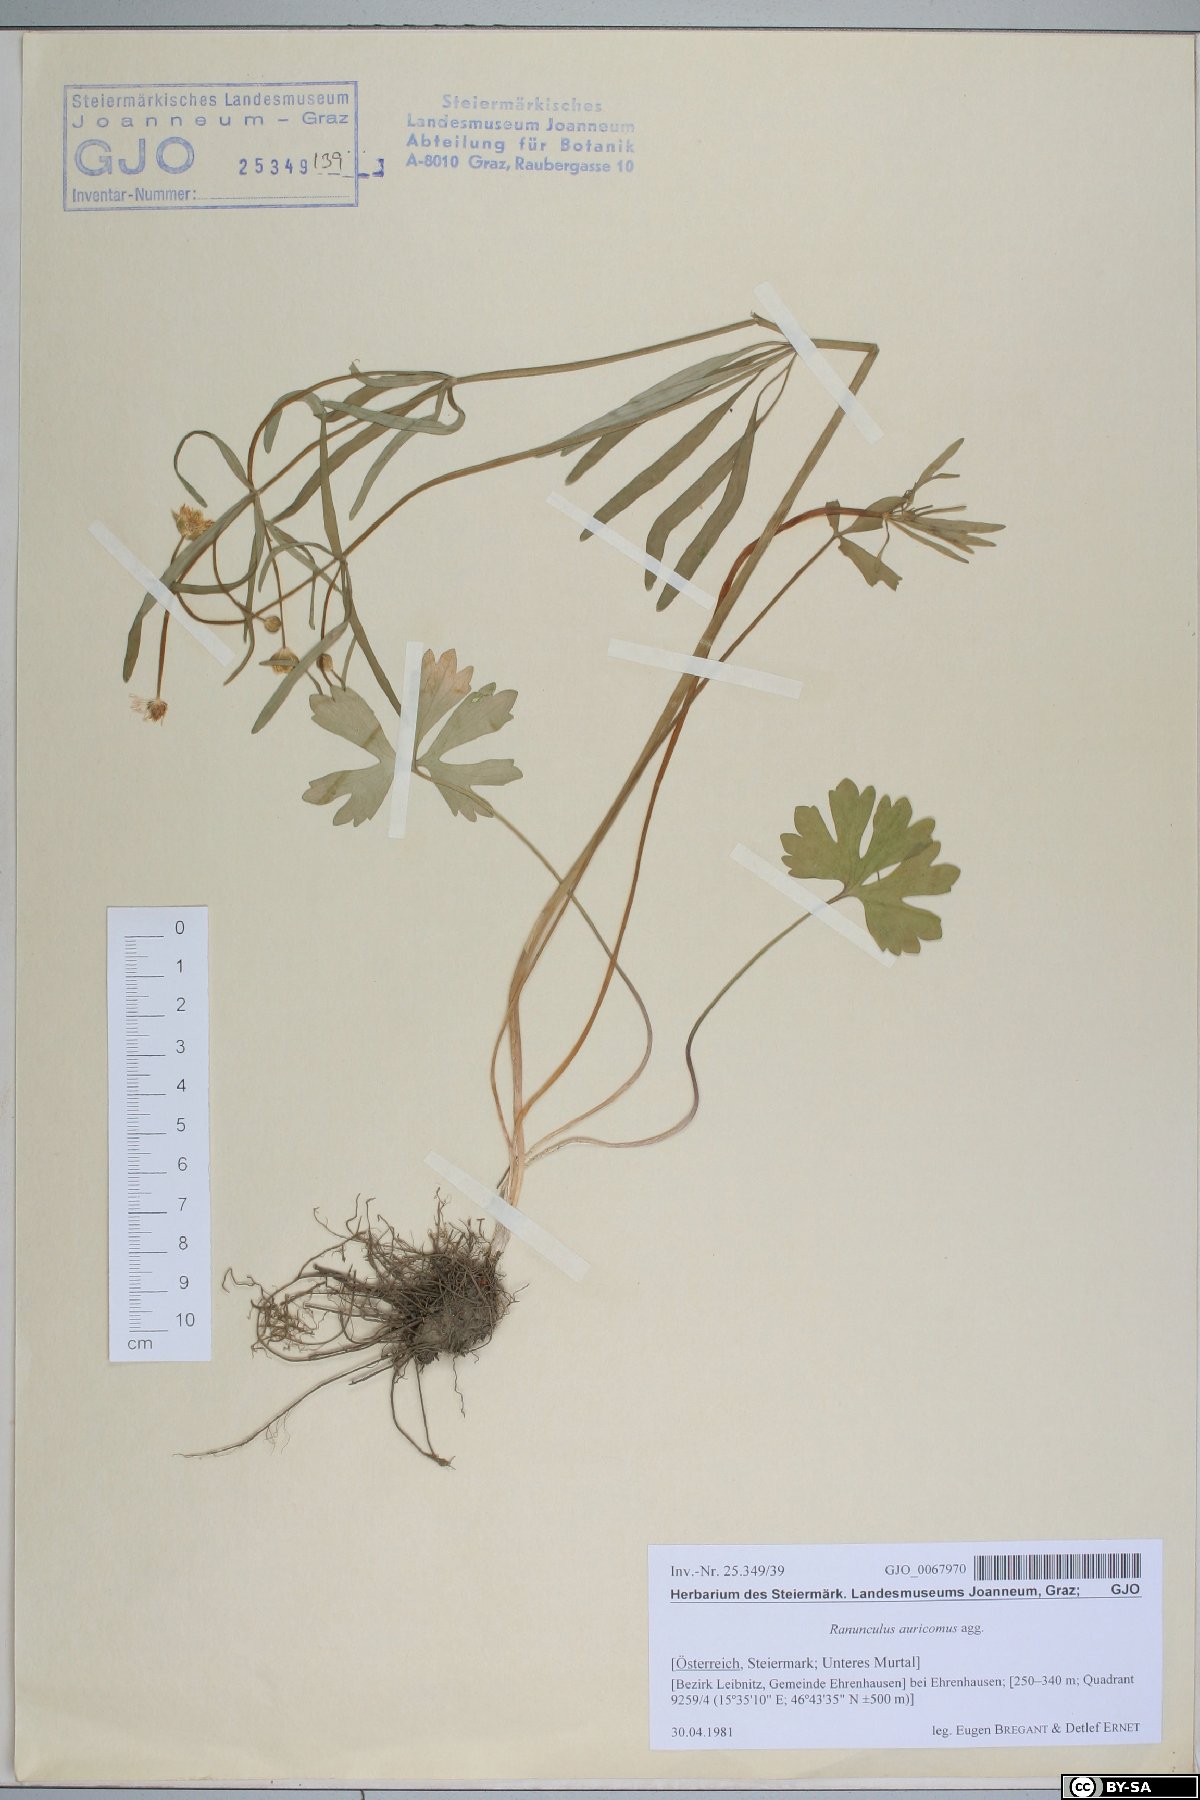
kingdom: Plantae
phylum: Tracheophyta
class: Magnoliopsida
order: Ranunculales
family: Ranunculaceae
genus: Ranunculus
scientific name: Ranunculus auricomus
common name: Goldilocks buttercup
